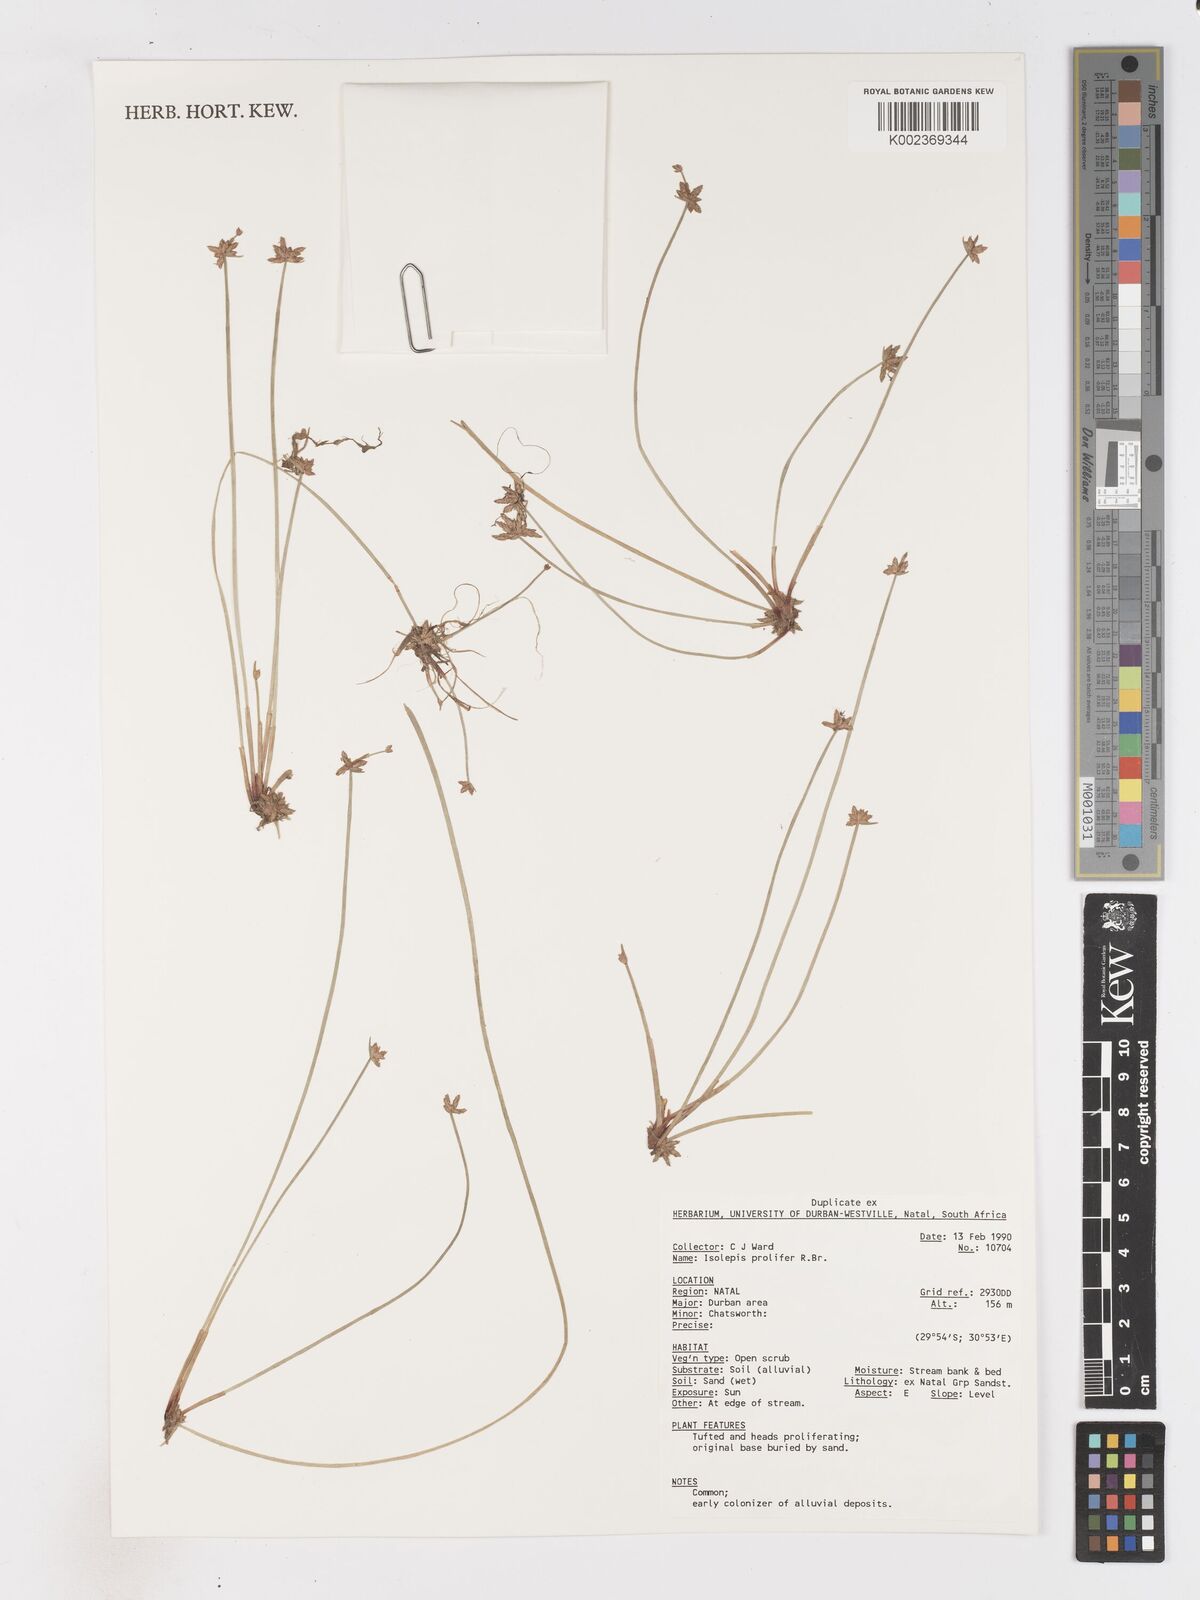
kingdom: Plantae
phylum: Tracheophyta
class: Liliopsida
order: Poales
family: Cyperaceae
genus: Isolepis
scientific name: Isolepis prolifera
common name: Proliferating bulrush
